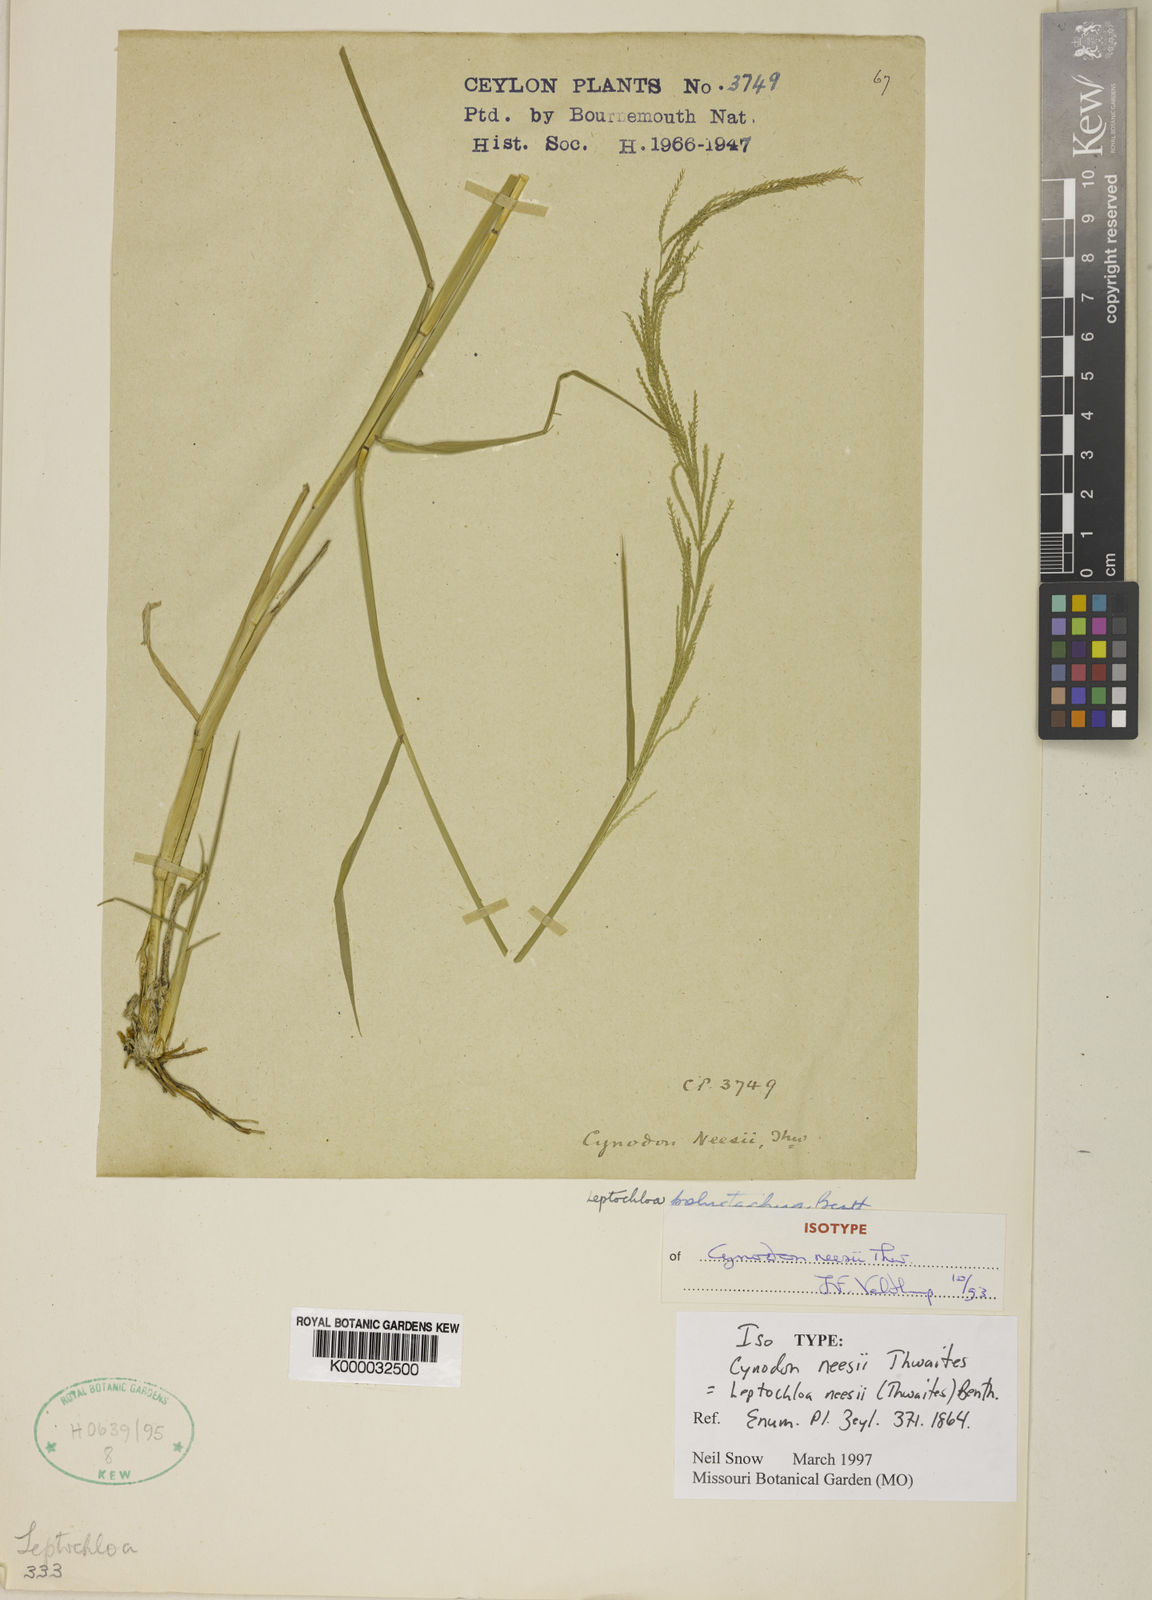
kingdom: Plantae
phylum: Tracheophyta
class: Liliopsida
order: Poales
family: Poaceae
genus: Dinebra
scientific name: Dinebra polystachyos
